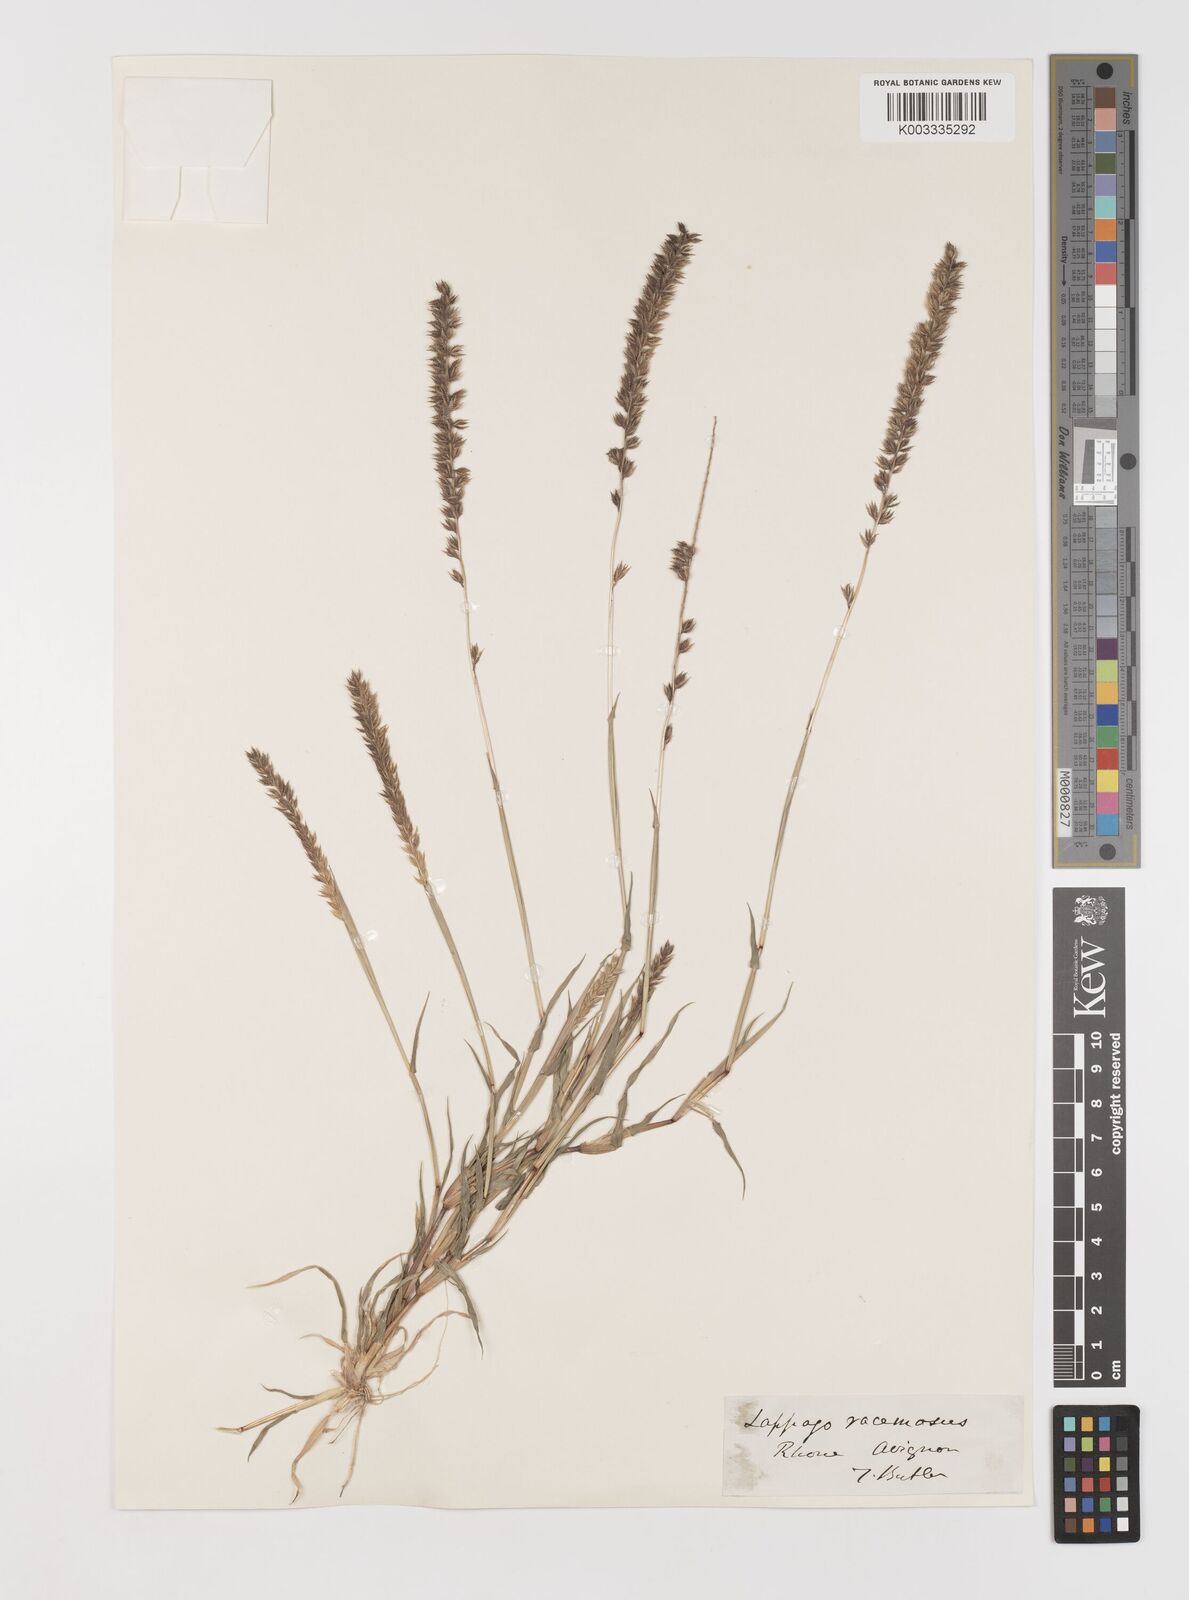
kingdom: Plantae
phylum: Tracheophyta
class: Liliopsida
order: Poales
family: Poaceae
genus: Tragus
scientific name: Tragus racemosus
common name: European bur-grass
